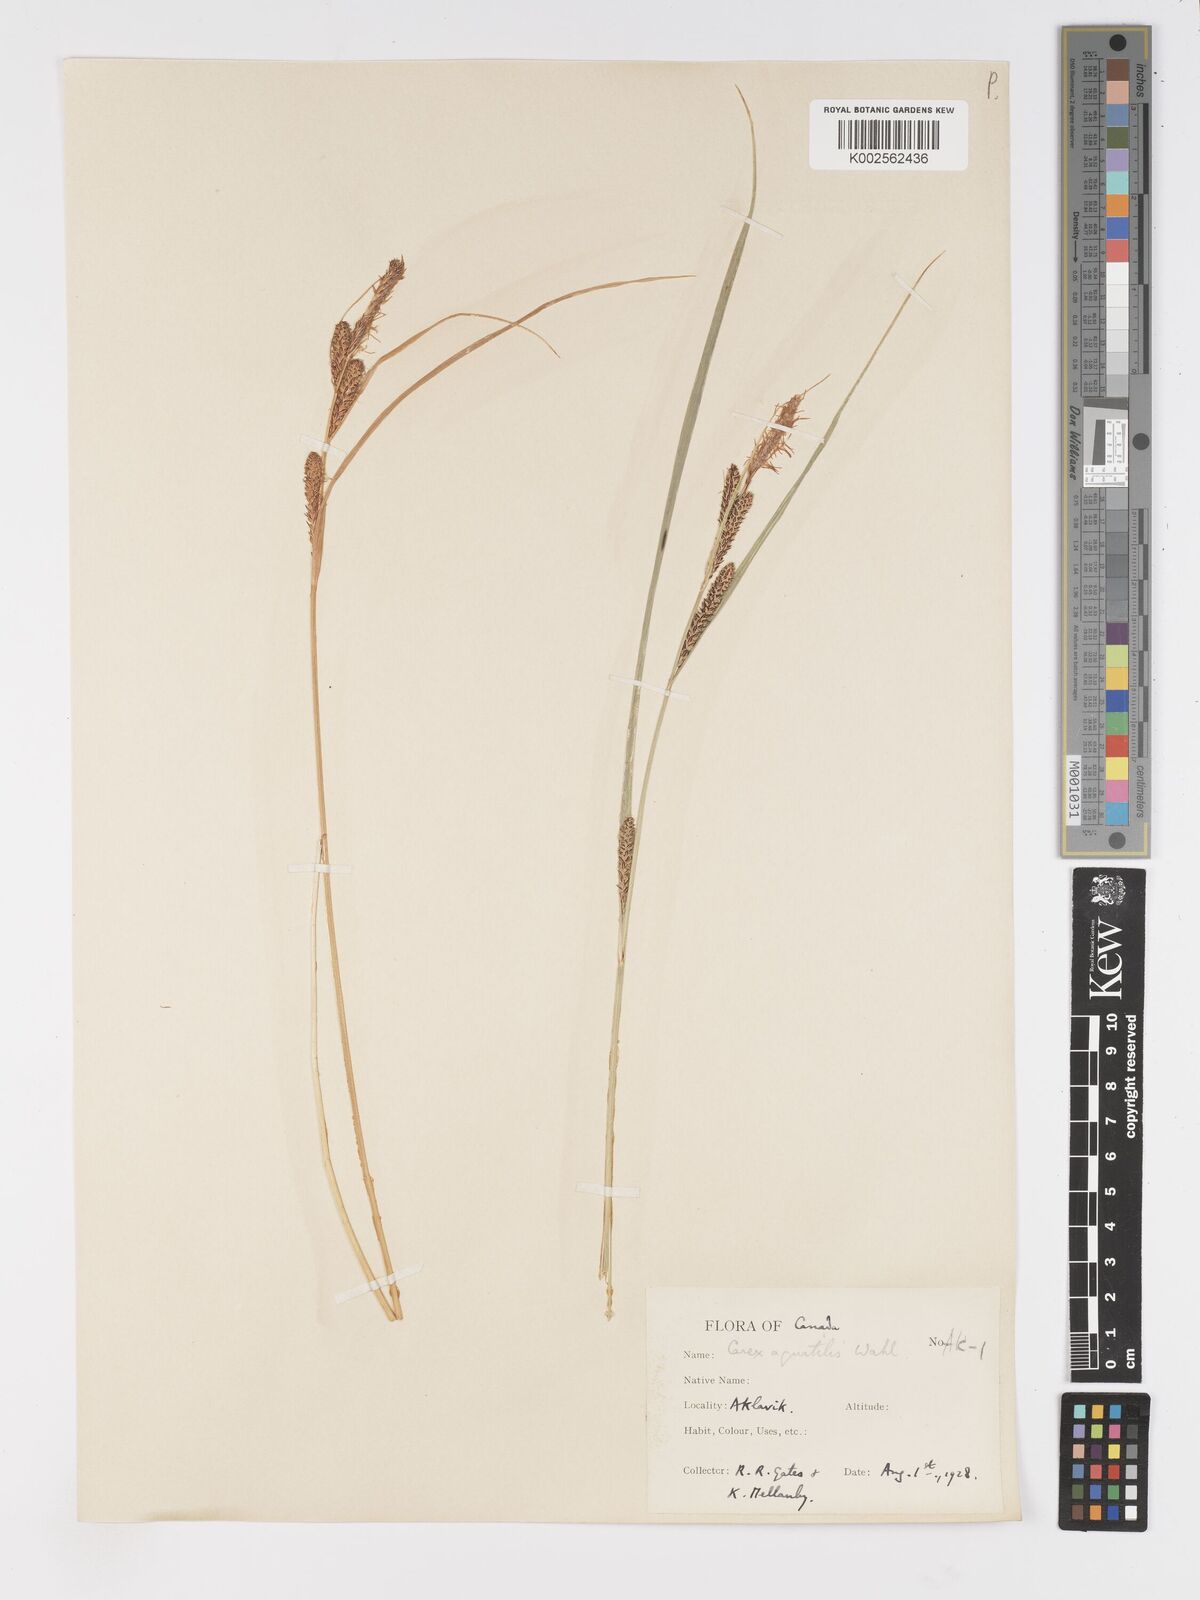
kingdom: Plantae
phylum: Tracheophyta
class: Liliopsida
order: Poales
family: Cyperaceae
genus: Carex
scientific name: Carex
